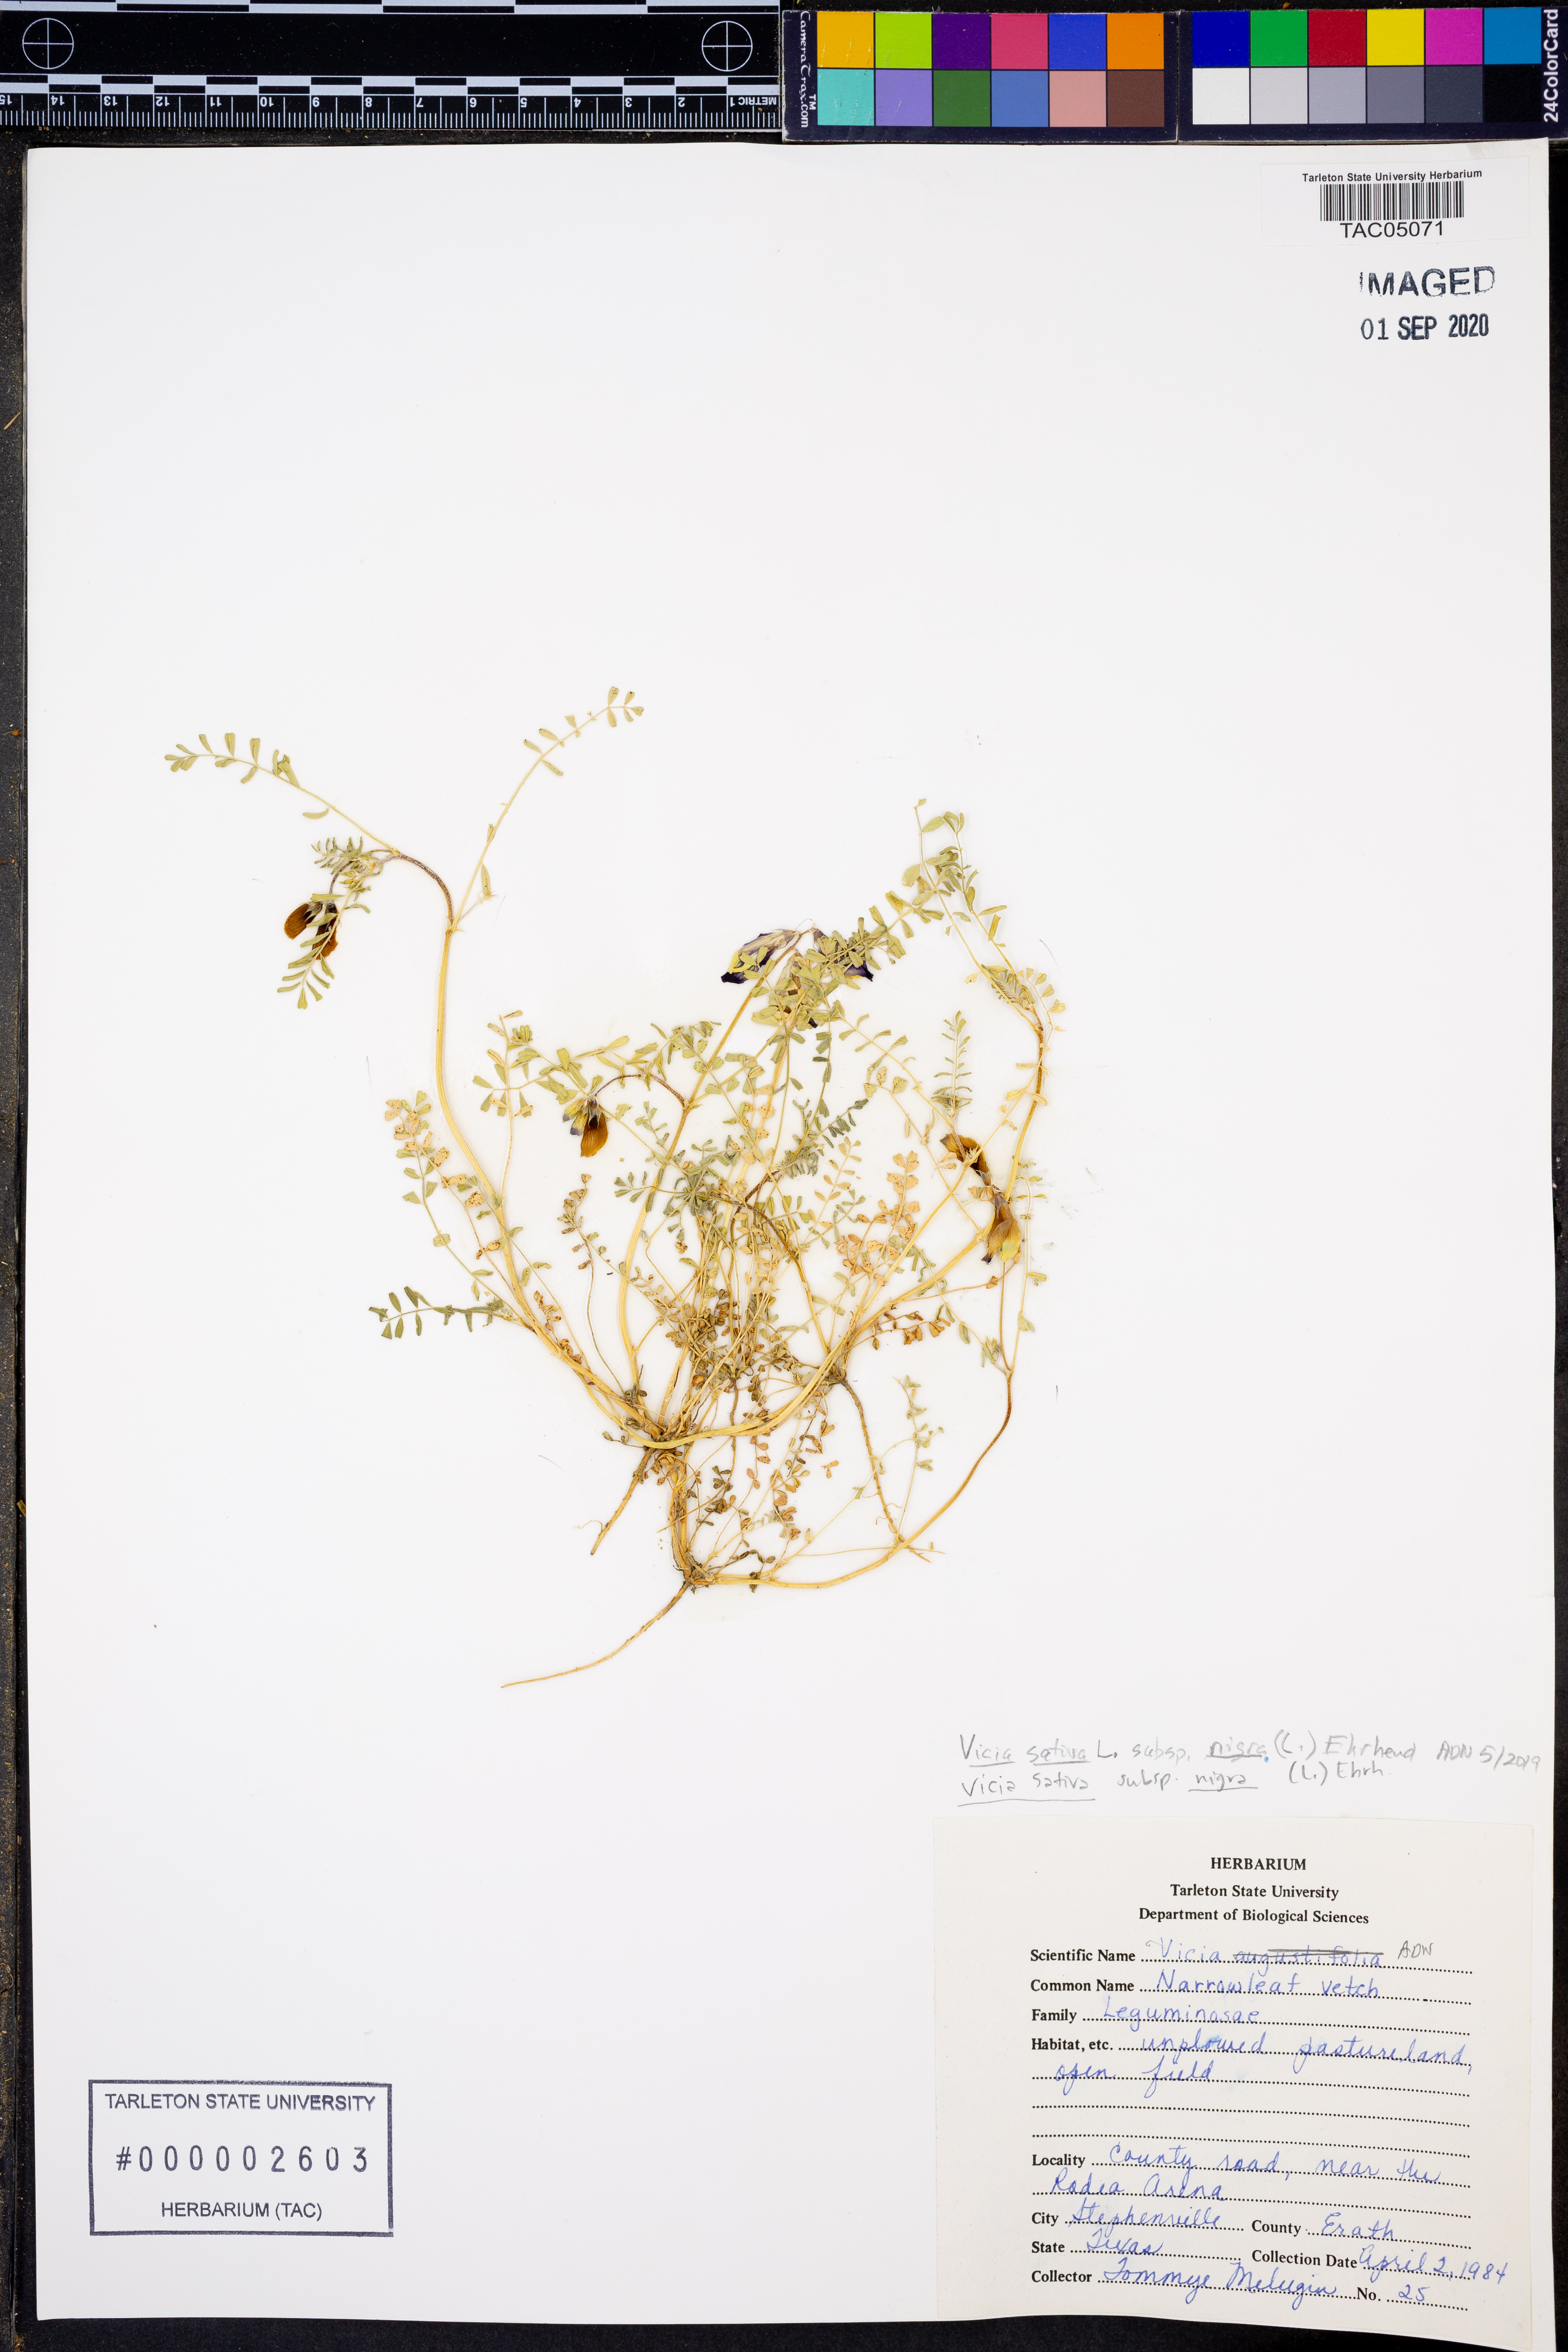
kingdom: Plantae
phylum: Tracheophyta
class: Magnoliopsida
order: Fabales
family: Fabaceae
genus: Vicia
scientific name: Vicia sativa
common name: Garden vetch
